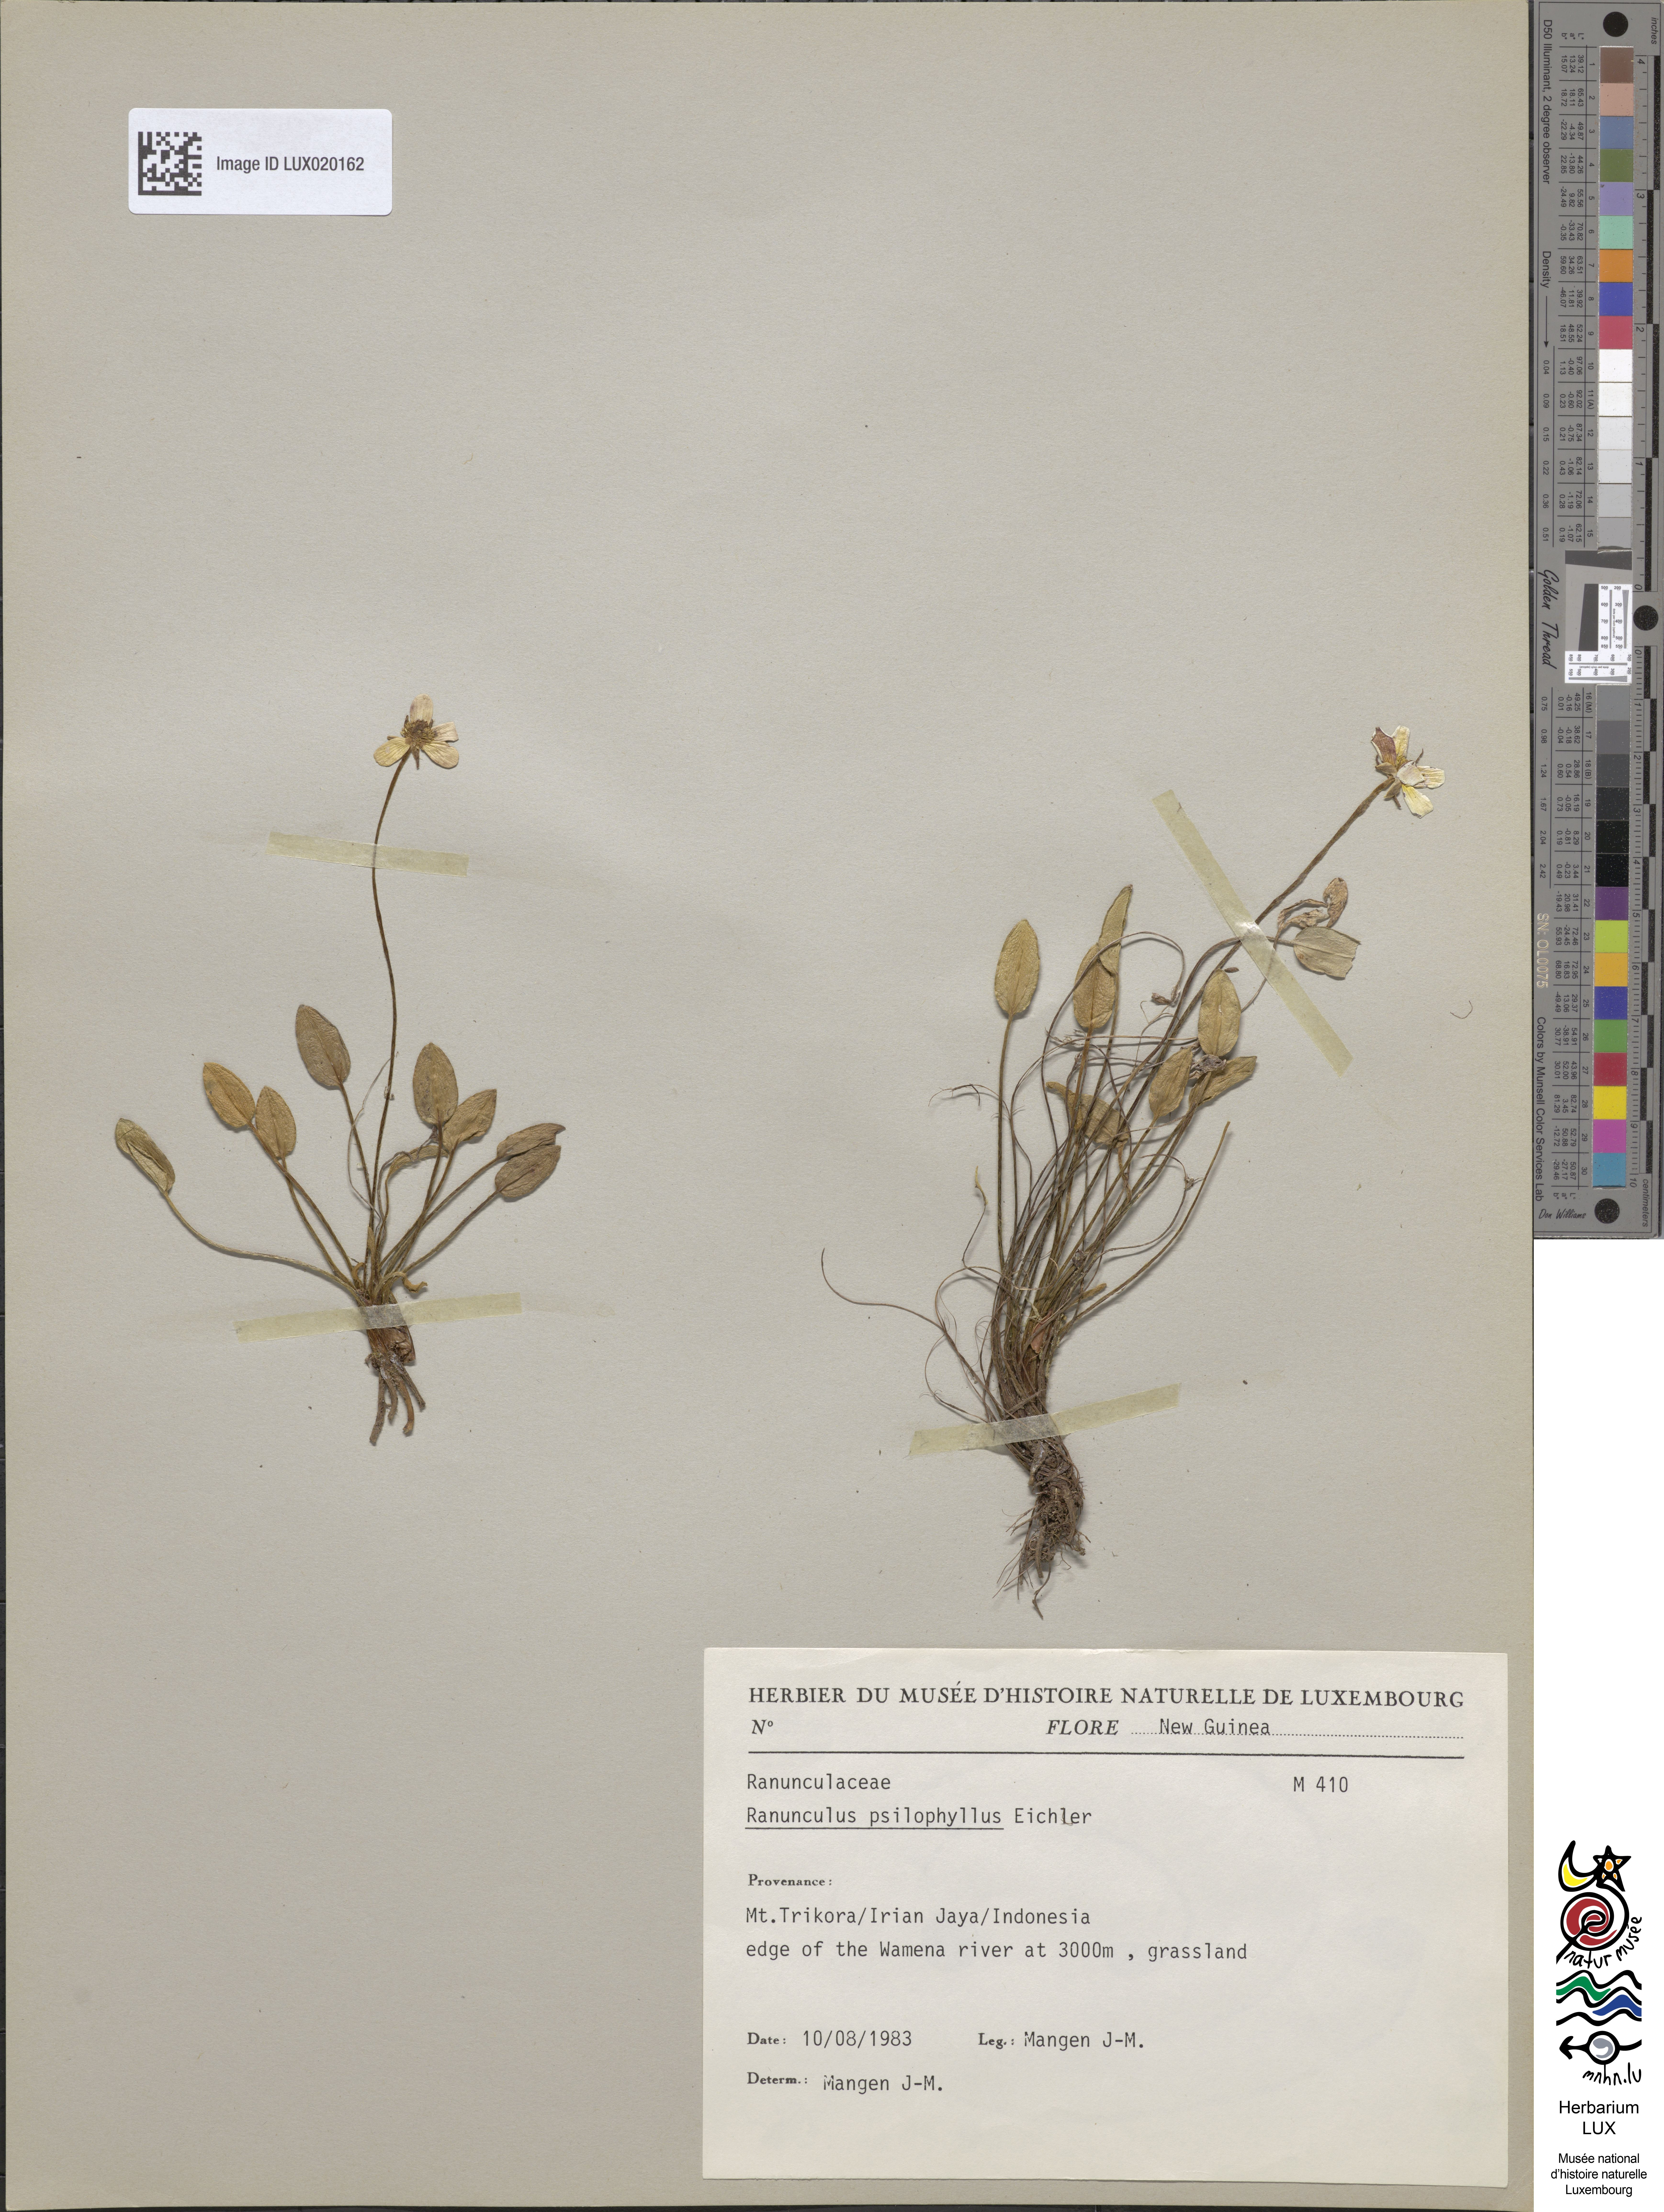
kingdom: Plantae
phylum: Tracheophyta
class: Magnoliopsida
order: Ranunculales
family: Ranunculaceae
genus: Ranunculus
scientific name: Ranunculus psilophyllus
